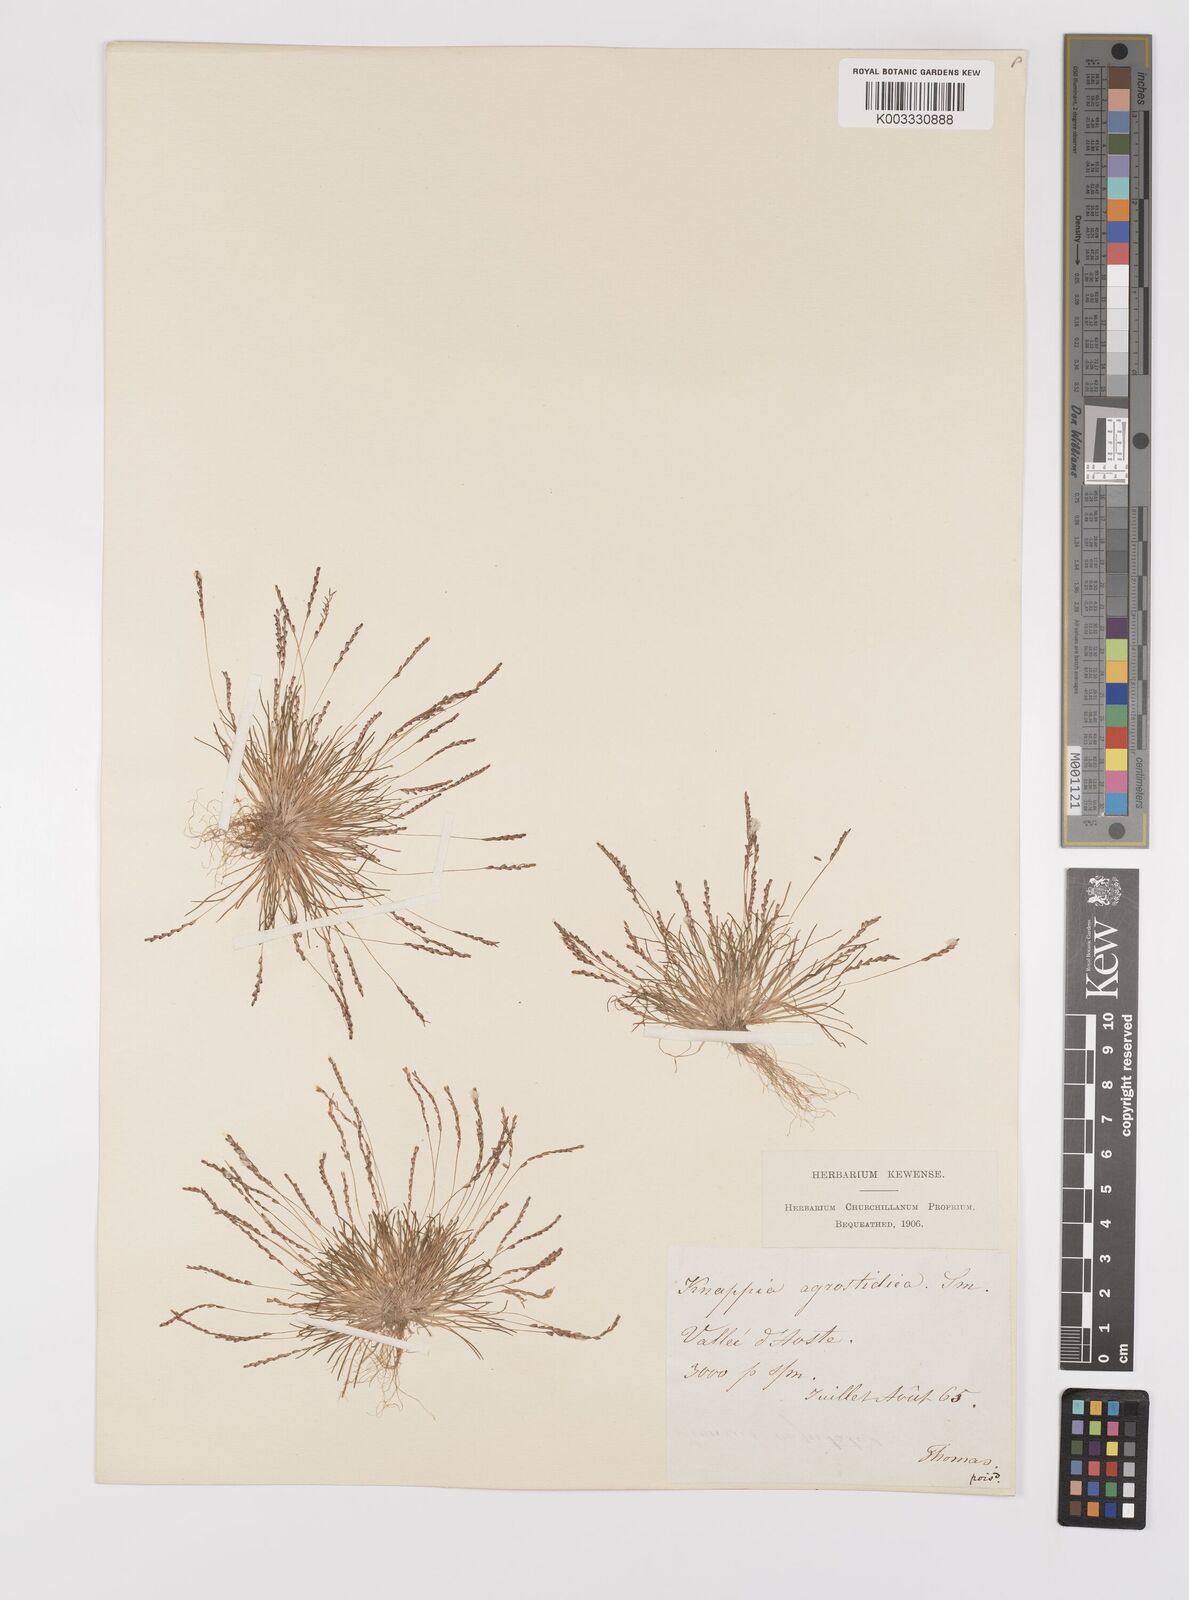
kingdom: Plantae
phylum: Tracheophyta
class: Liliopsida
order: Poales
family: Poaceae
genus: Mibora
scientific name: Mibora minima
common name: Early sand-grass
